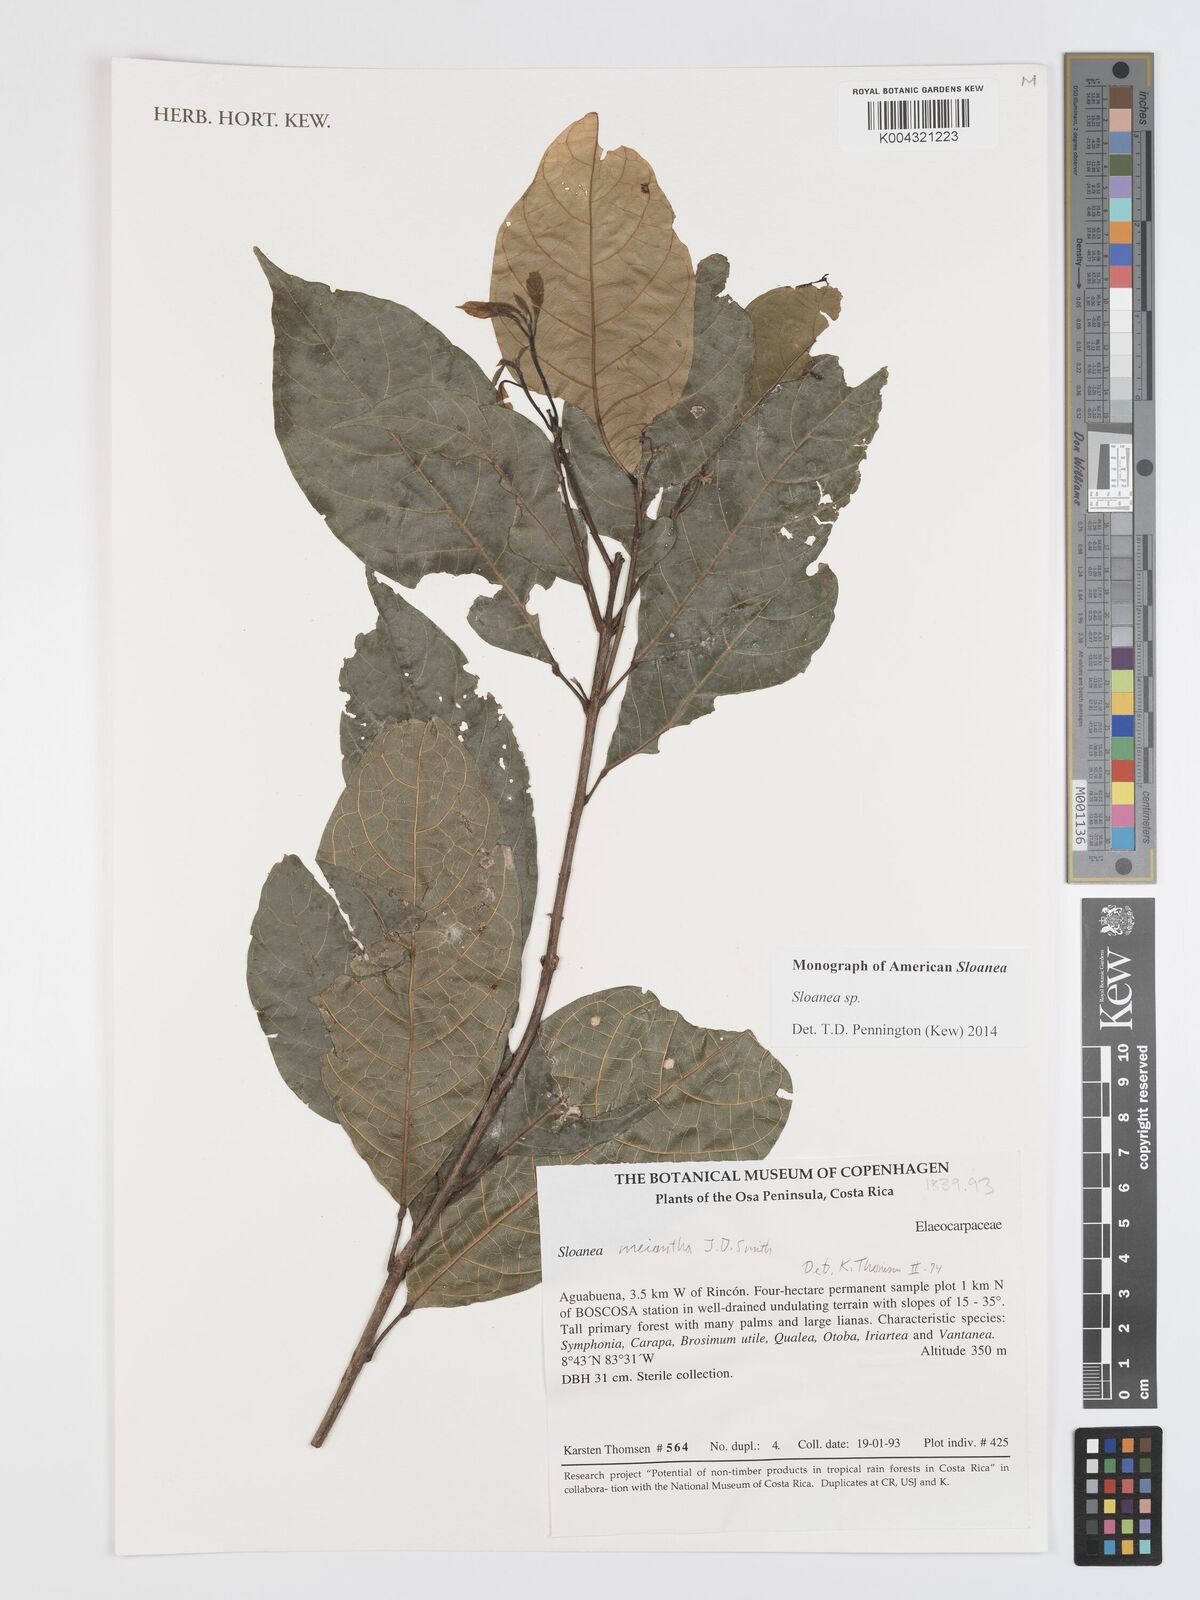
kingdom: Plantae
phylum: Tracheophyta
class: Magnoliopsida
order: Oxalidales
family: Elaeocarpaceae
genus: Sloanea
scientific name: Sloanea
